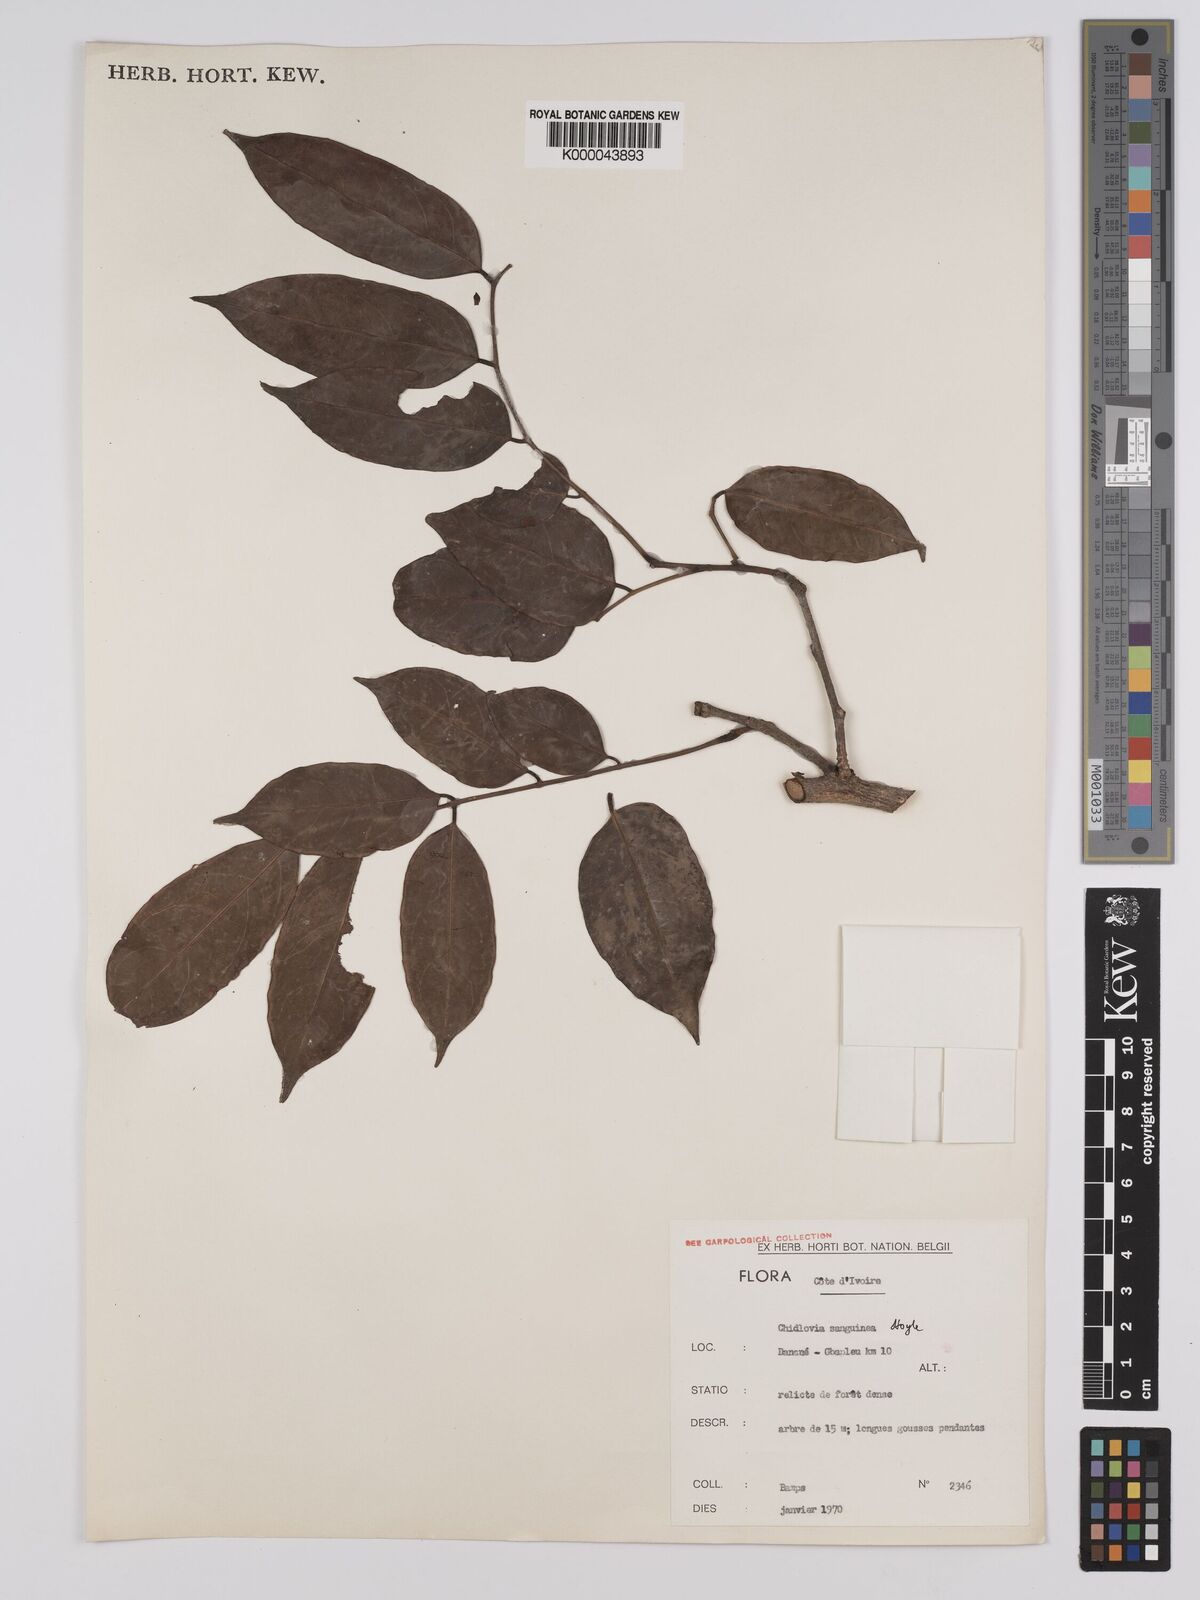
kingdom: Plantae
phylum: Tracheophyta
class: Magnoliopsida
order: Fabales
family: Fabaceae
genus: Chidlowia
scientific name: Chidlowia sanguinea
